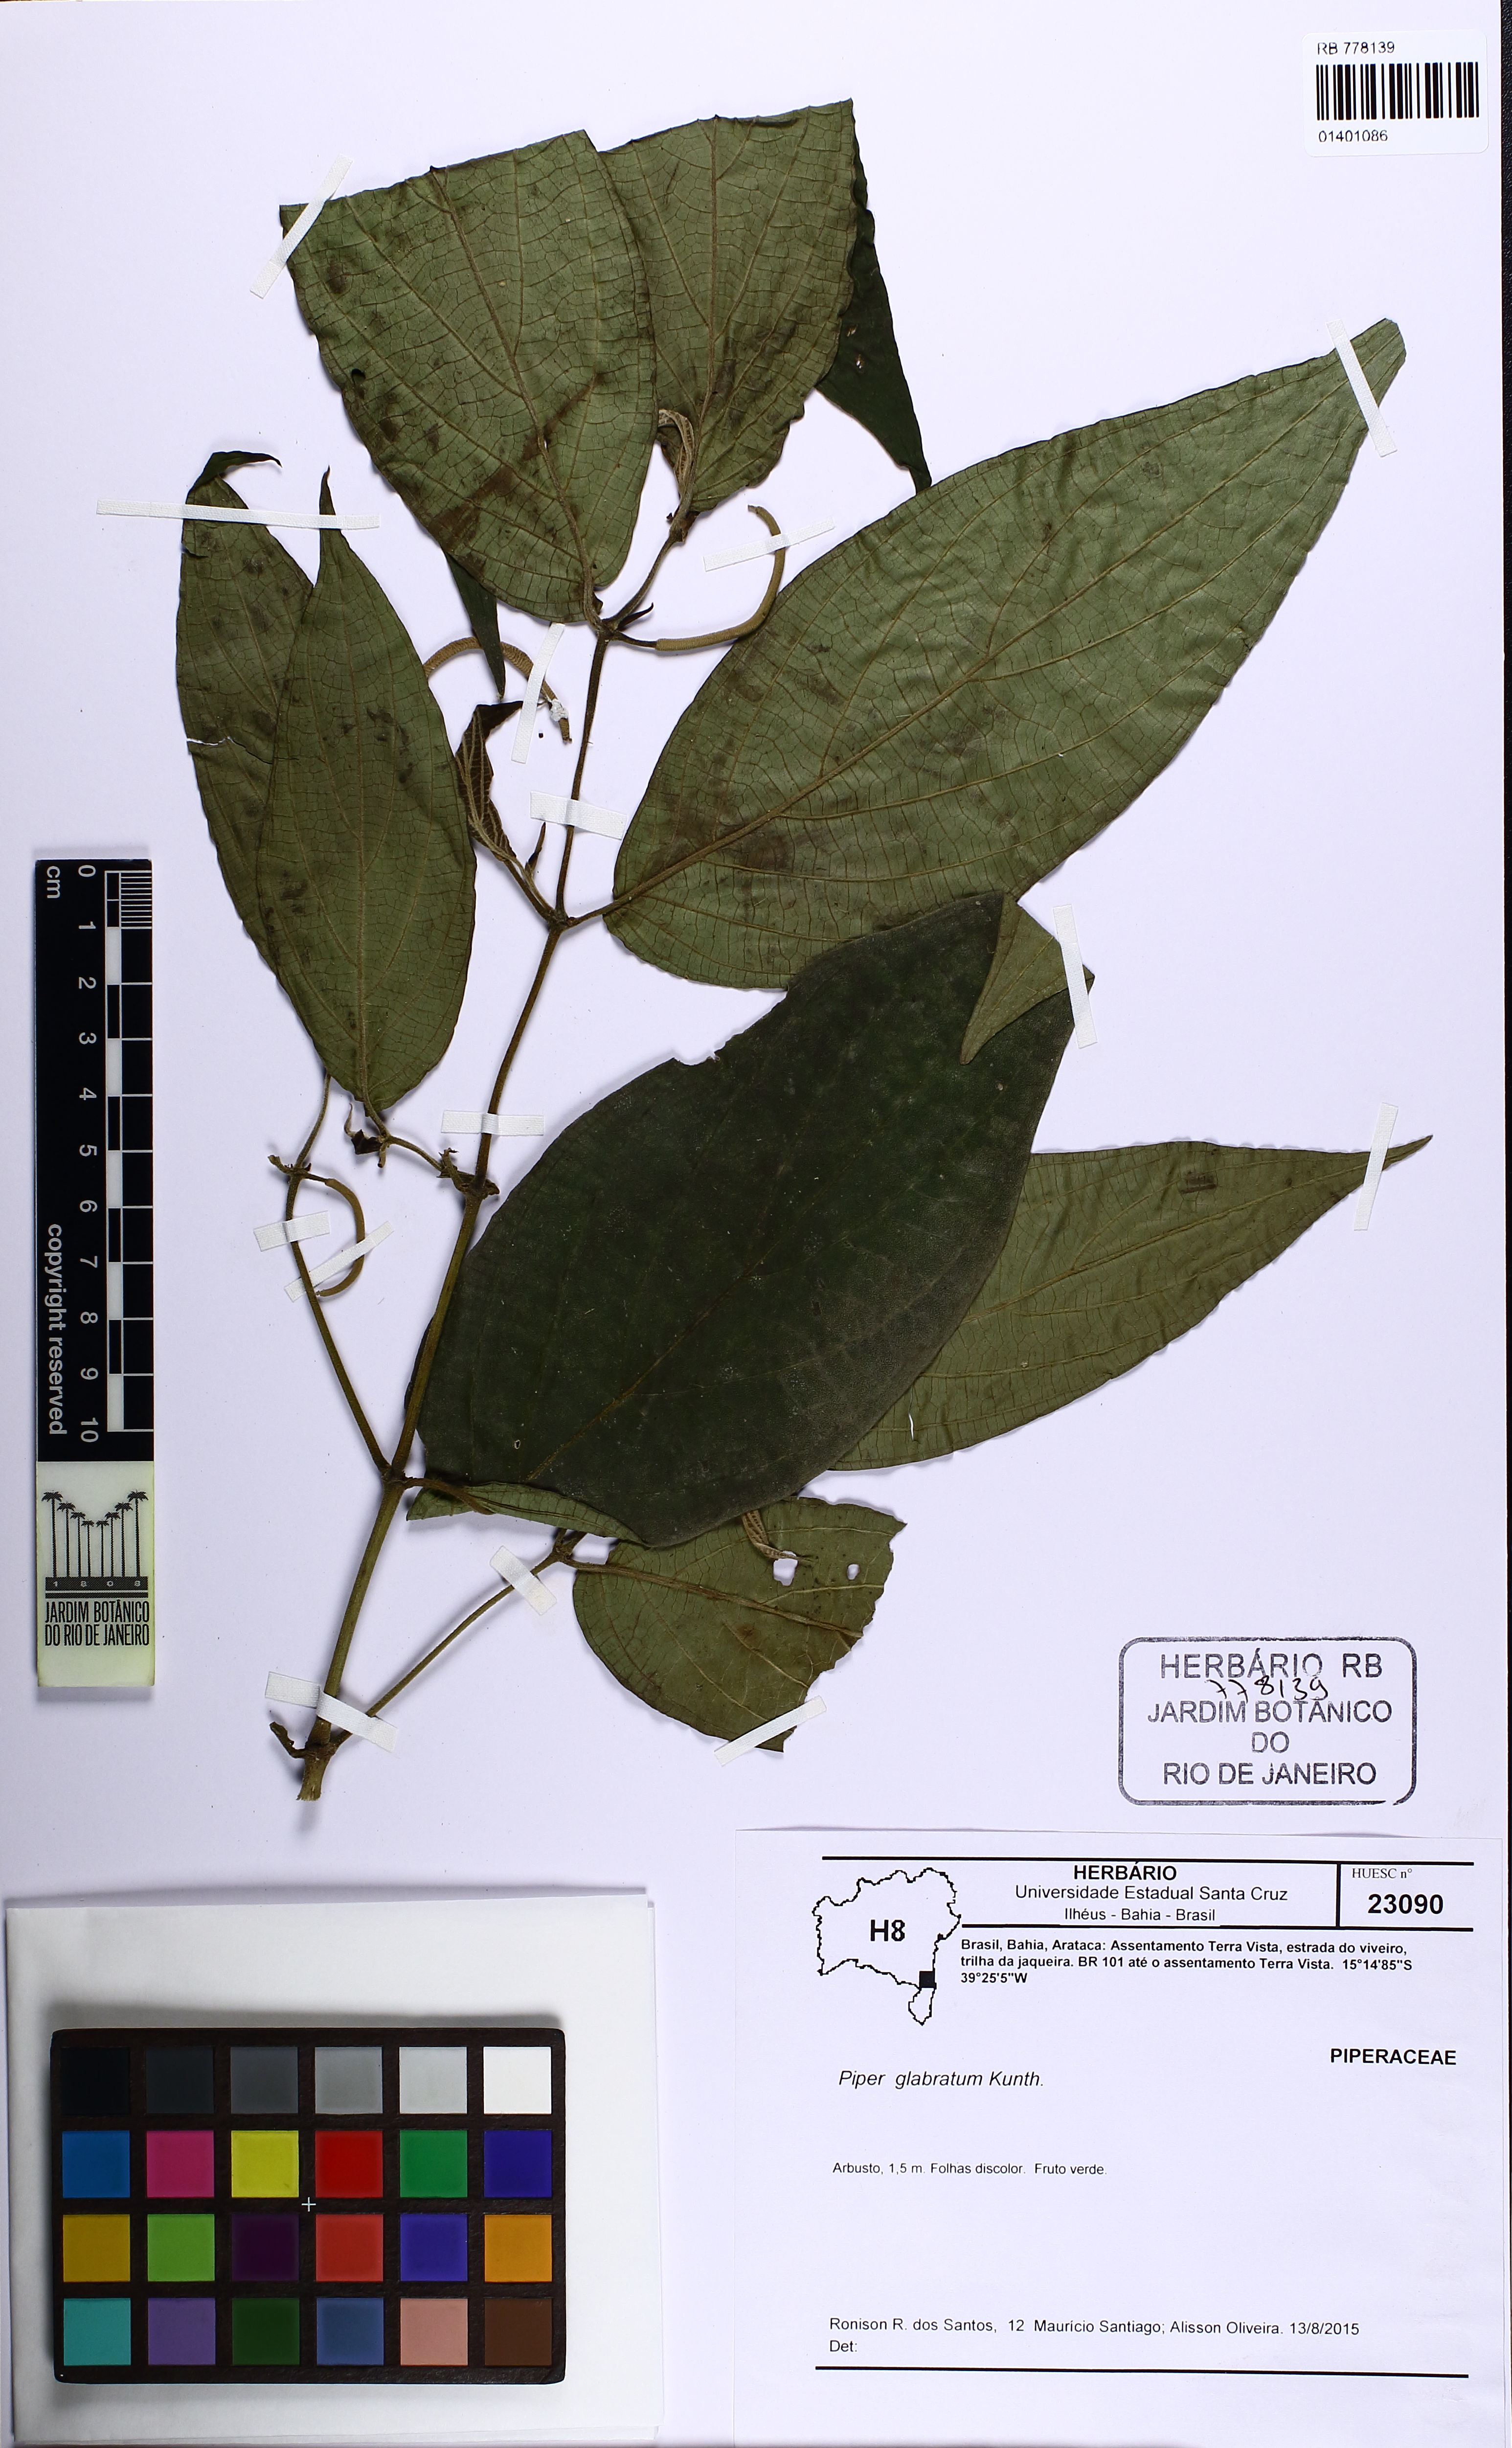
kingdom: Plantae
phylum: Tracheophyta
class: Magnoliopsida
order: Piperales
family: Piperaceae
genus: Piper
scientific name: Piper glabratum
